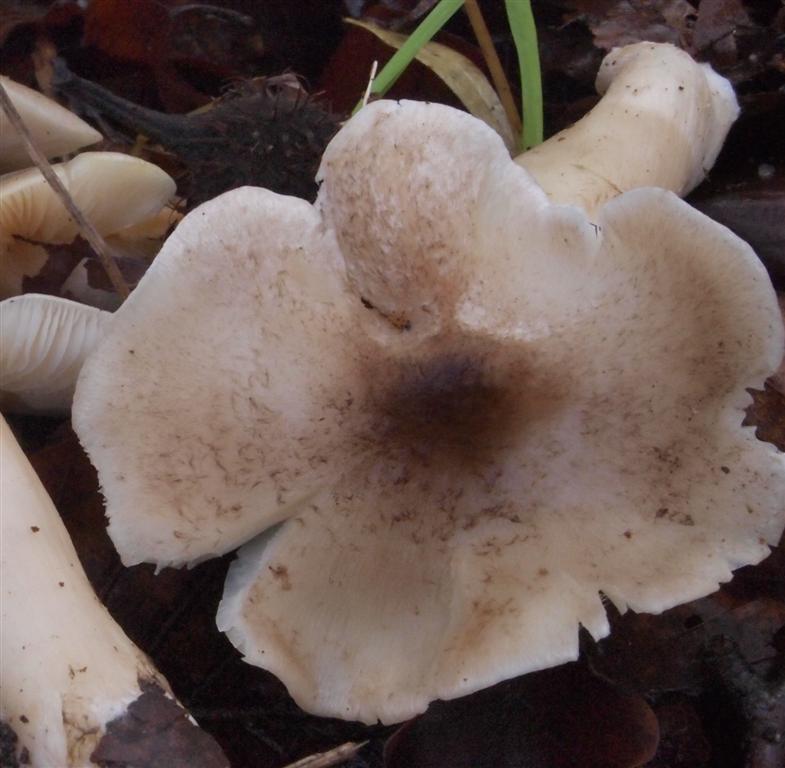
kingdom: Fungi
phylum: Basidiomycota
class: Agaricomycetes
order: Agaricales
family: Tricholomataceae
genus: Tricholoma
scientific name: Tricholoma scalpturatum
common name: gulplettet ridderhat
